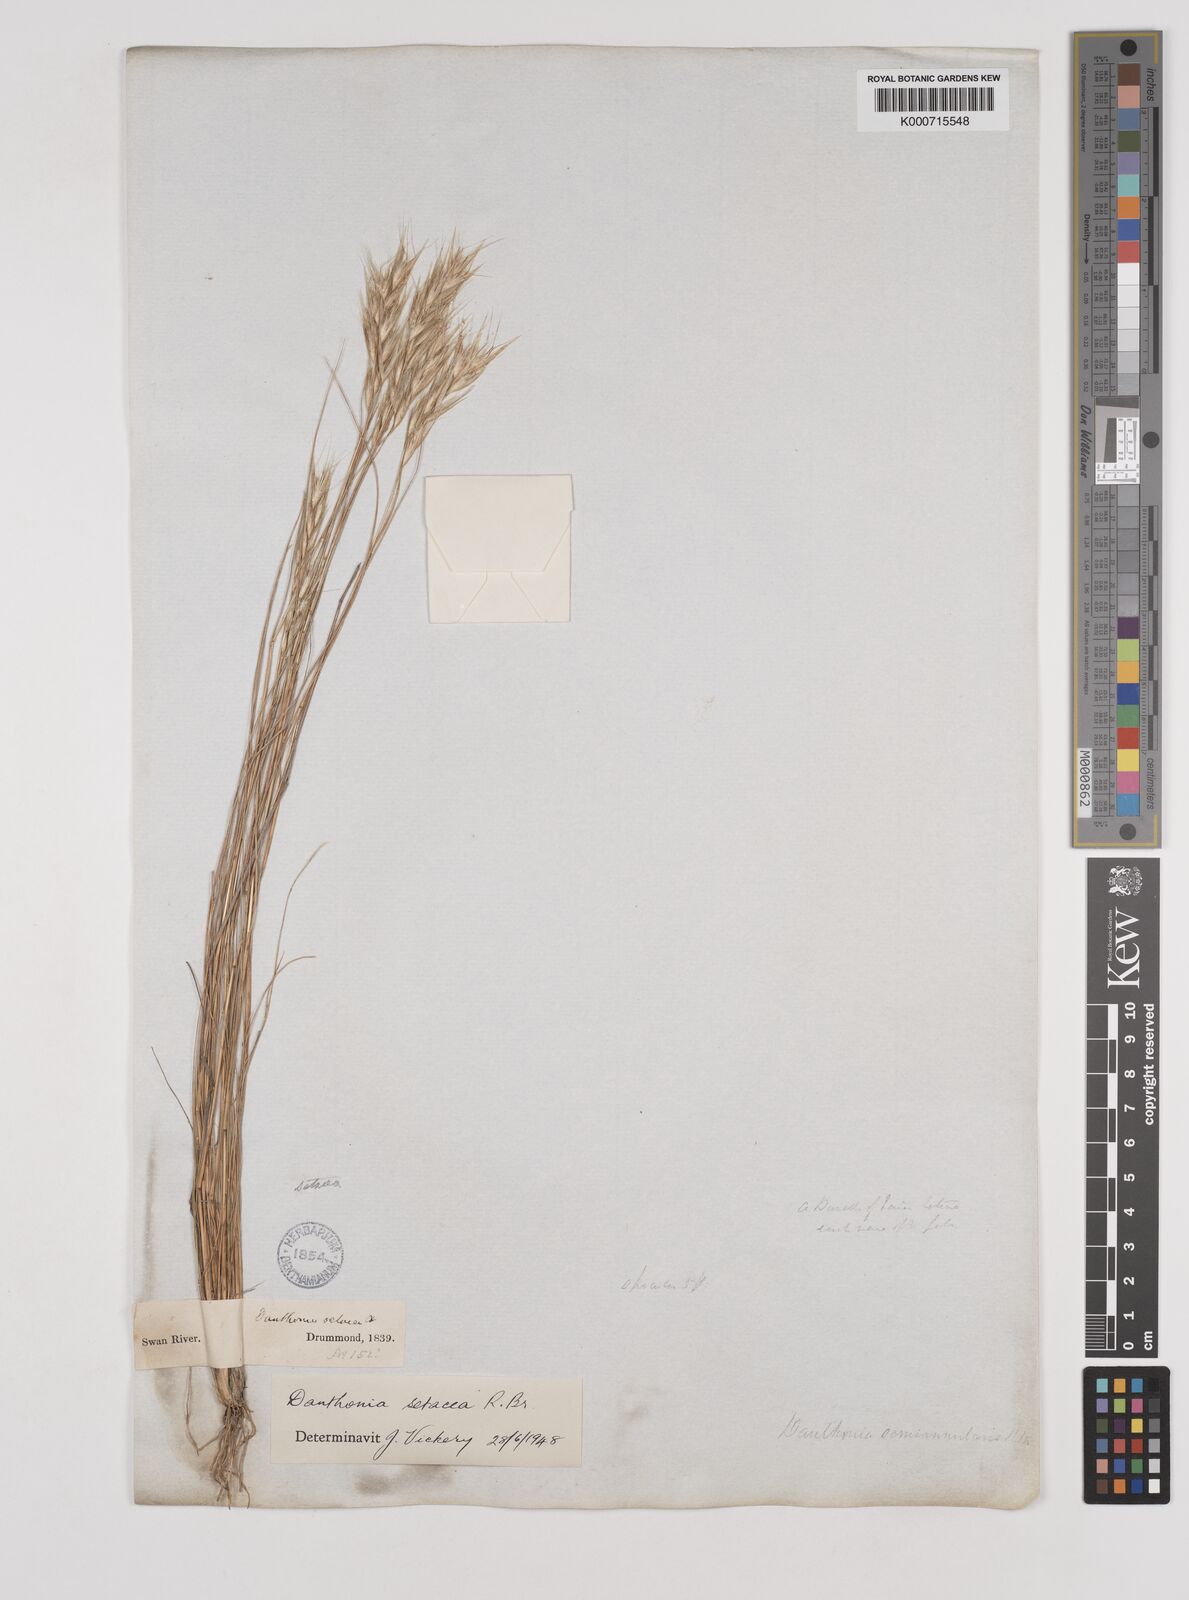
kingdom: Plantae
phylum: Tracheophyta
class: Liliopsida
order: Poales
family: Poaceae
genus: Rytidosperma
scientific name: Rytidosperma setaceum
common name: Small-flower wallaby grass
